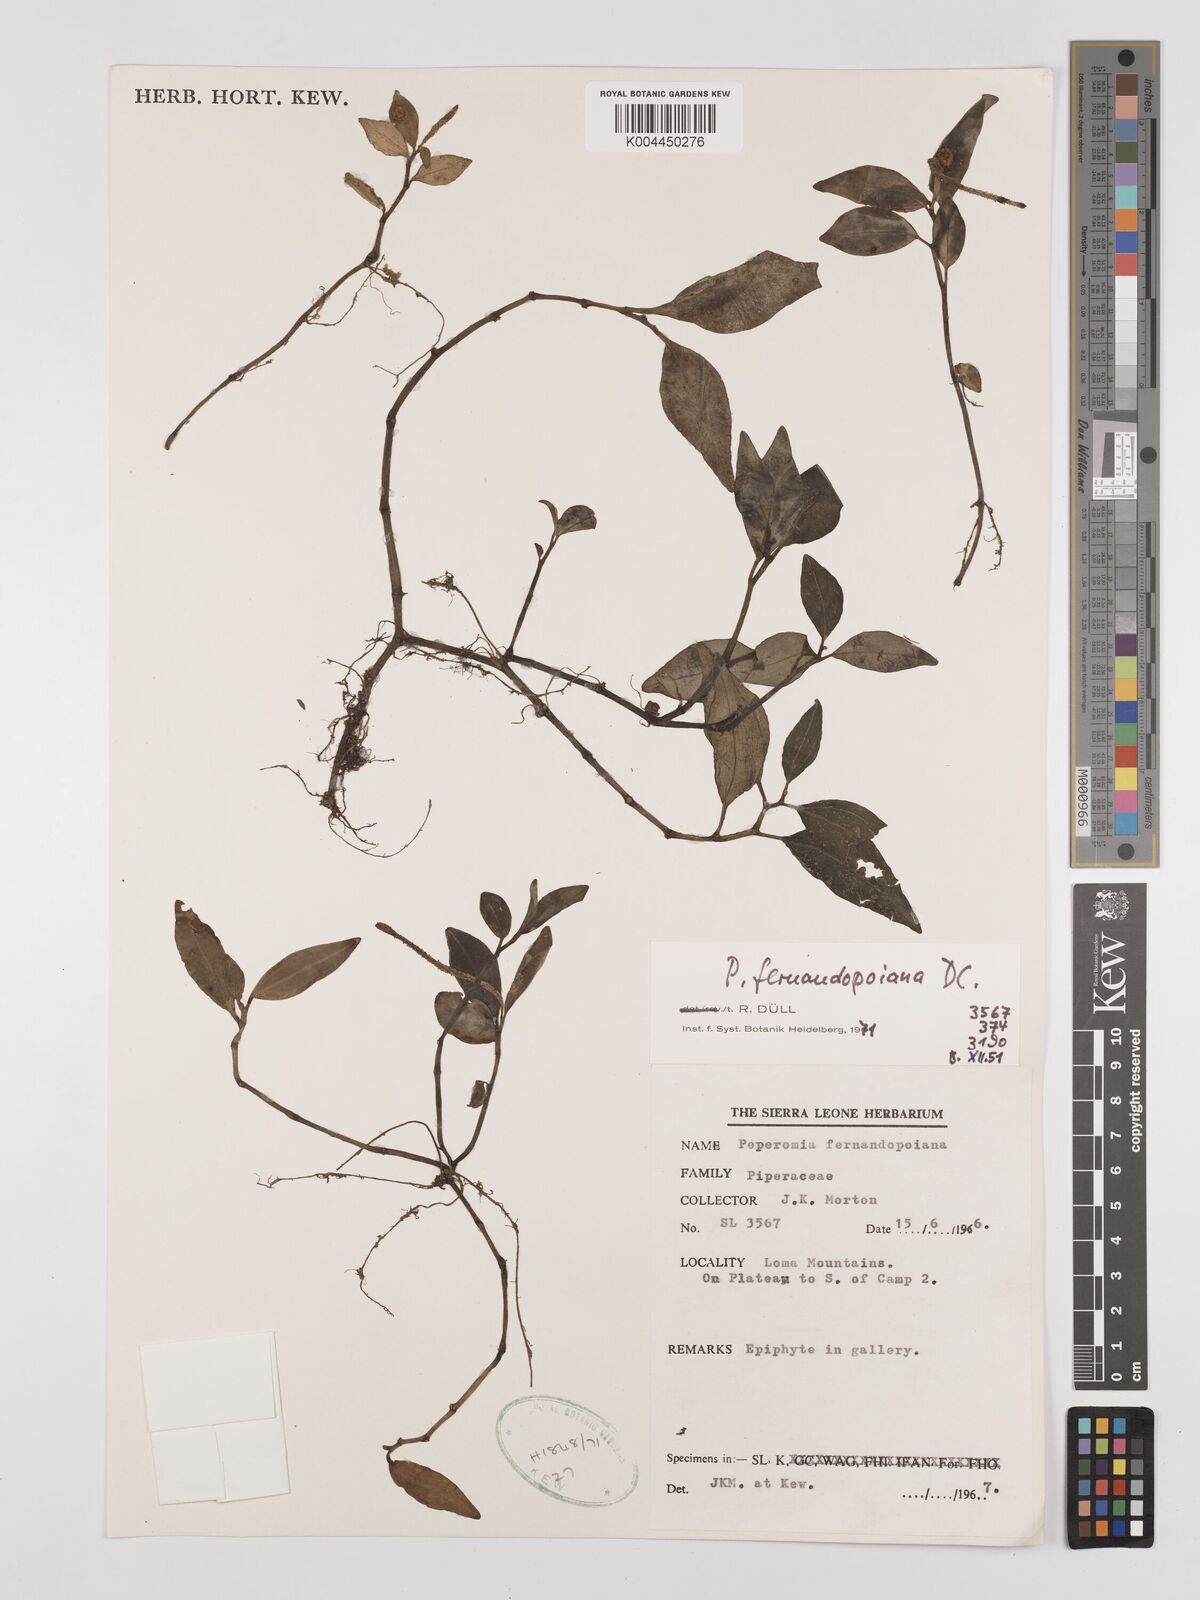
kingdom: Plantae
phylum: Tracheophyta
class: Magnoliopsida
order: Piperales
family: Piperaceae
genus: Peperomia
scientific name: Peperomia fernandeziana
